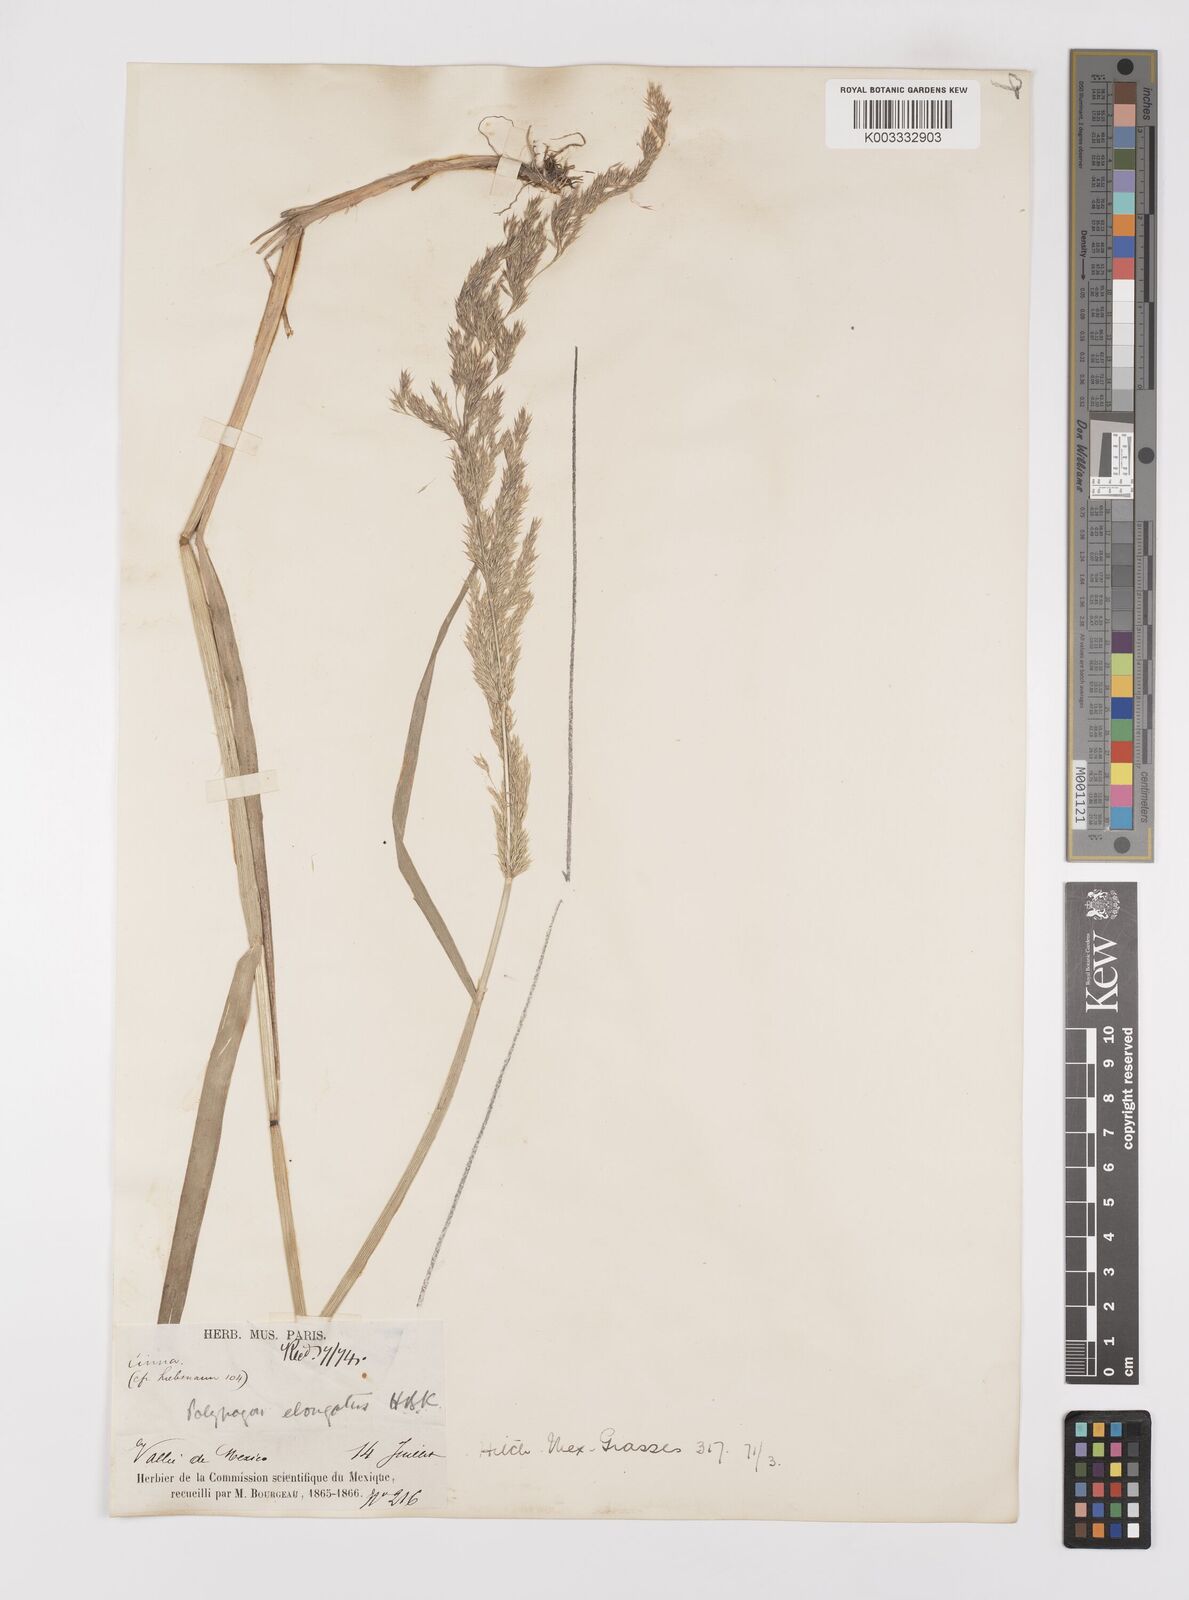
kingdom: Plantae
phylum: Tracheophyta
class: Liliopsida
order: Poales
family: Poaceae
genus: Polypogon
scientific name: Polypogon elongatus
